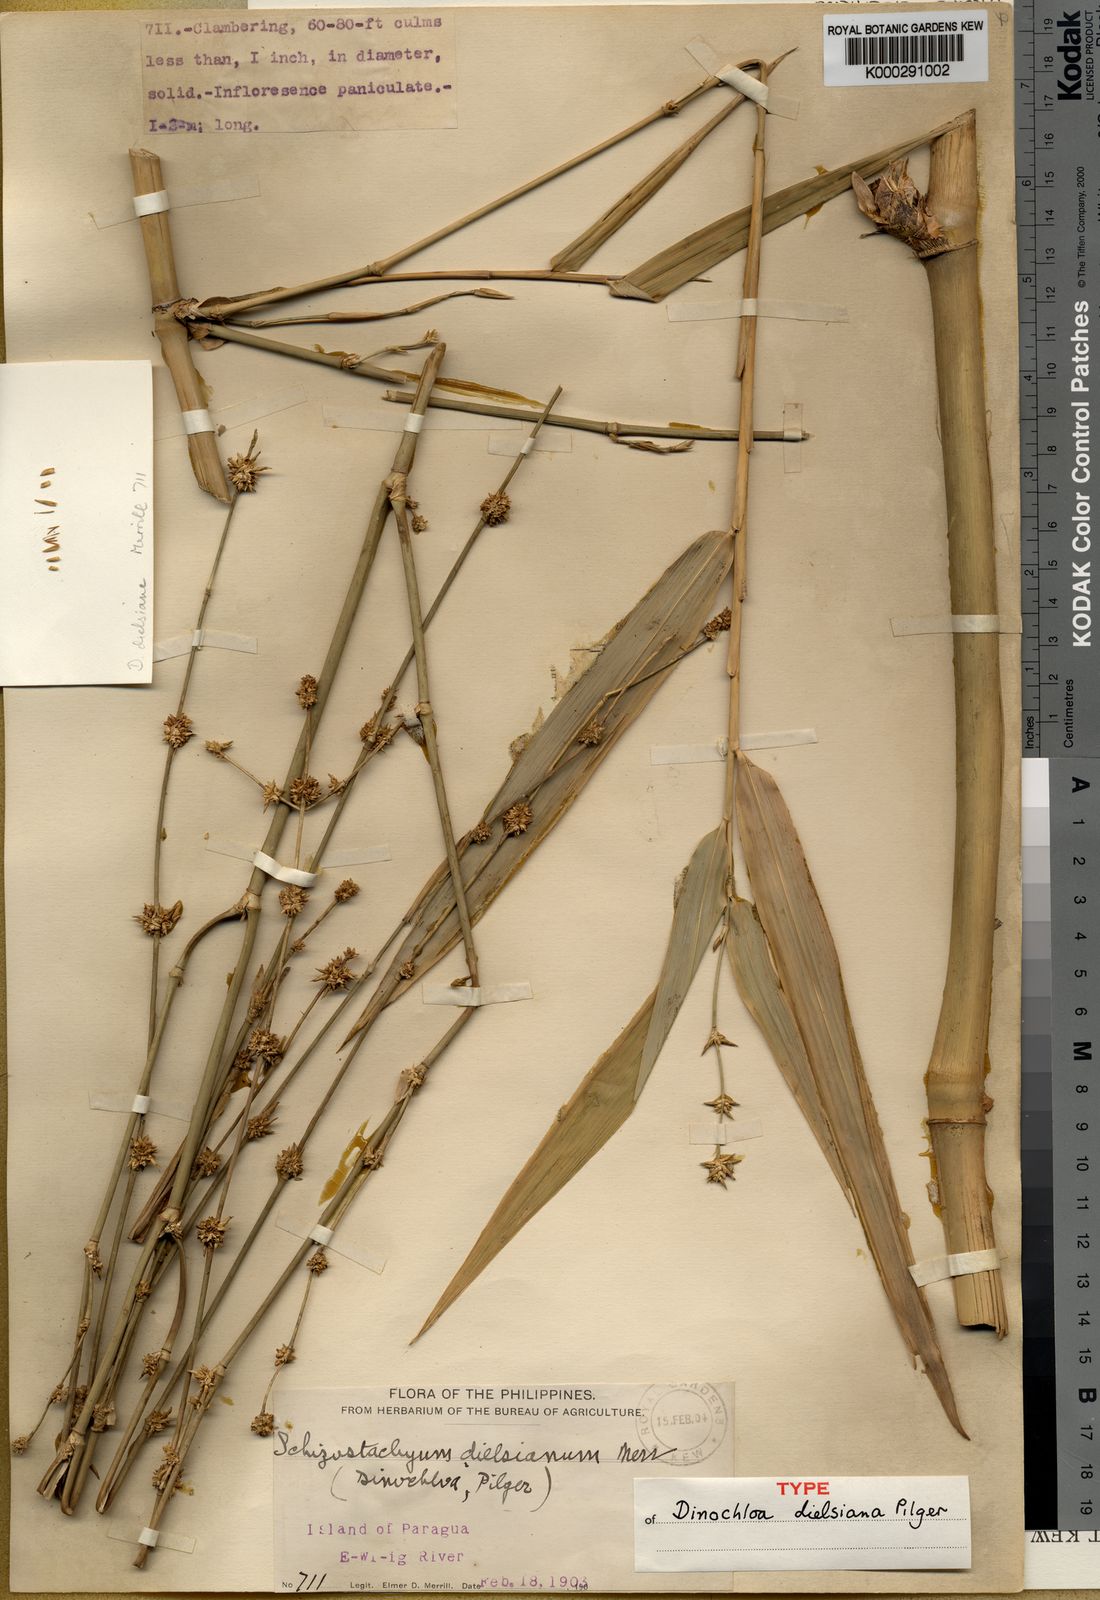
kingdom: Plantae
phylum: Tracheophyta
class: Liliopsida
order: Poales
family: Poaceae
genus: Dinochloa
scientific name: Dinochloa dielsiana
